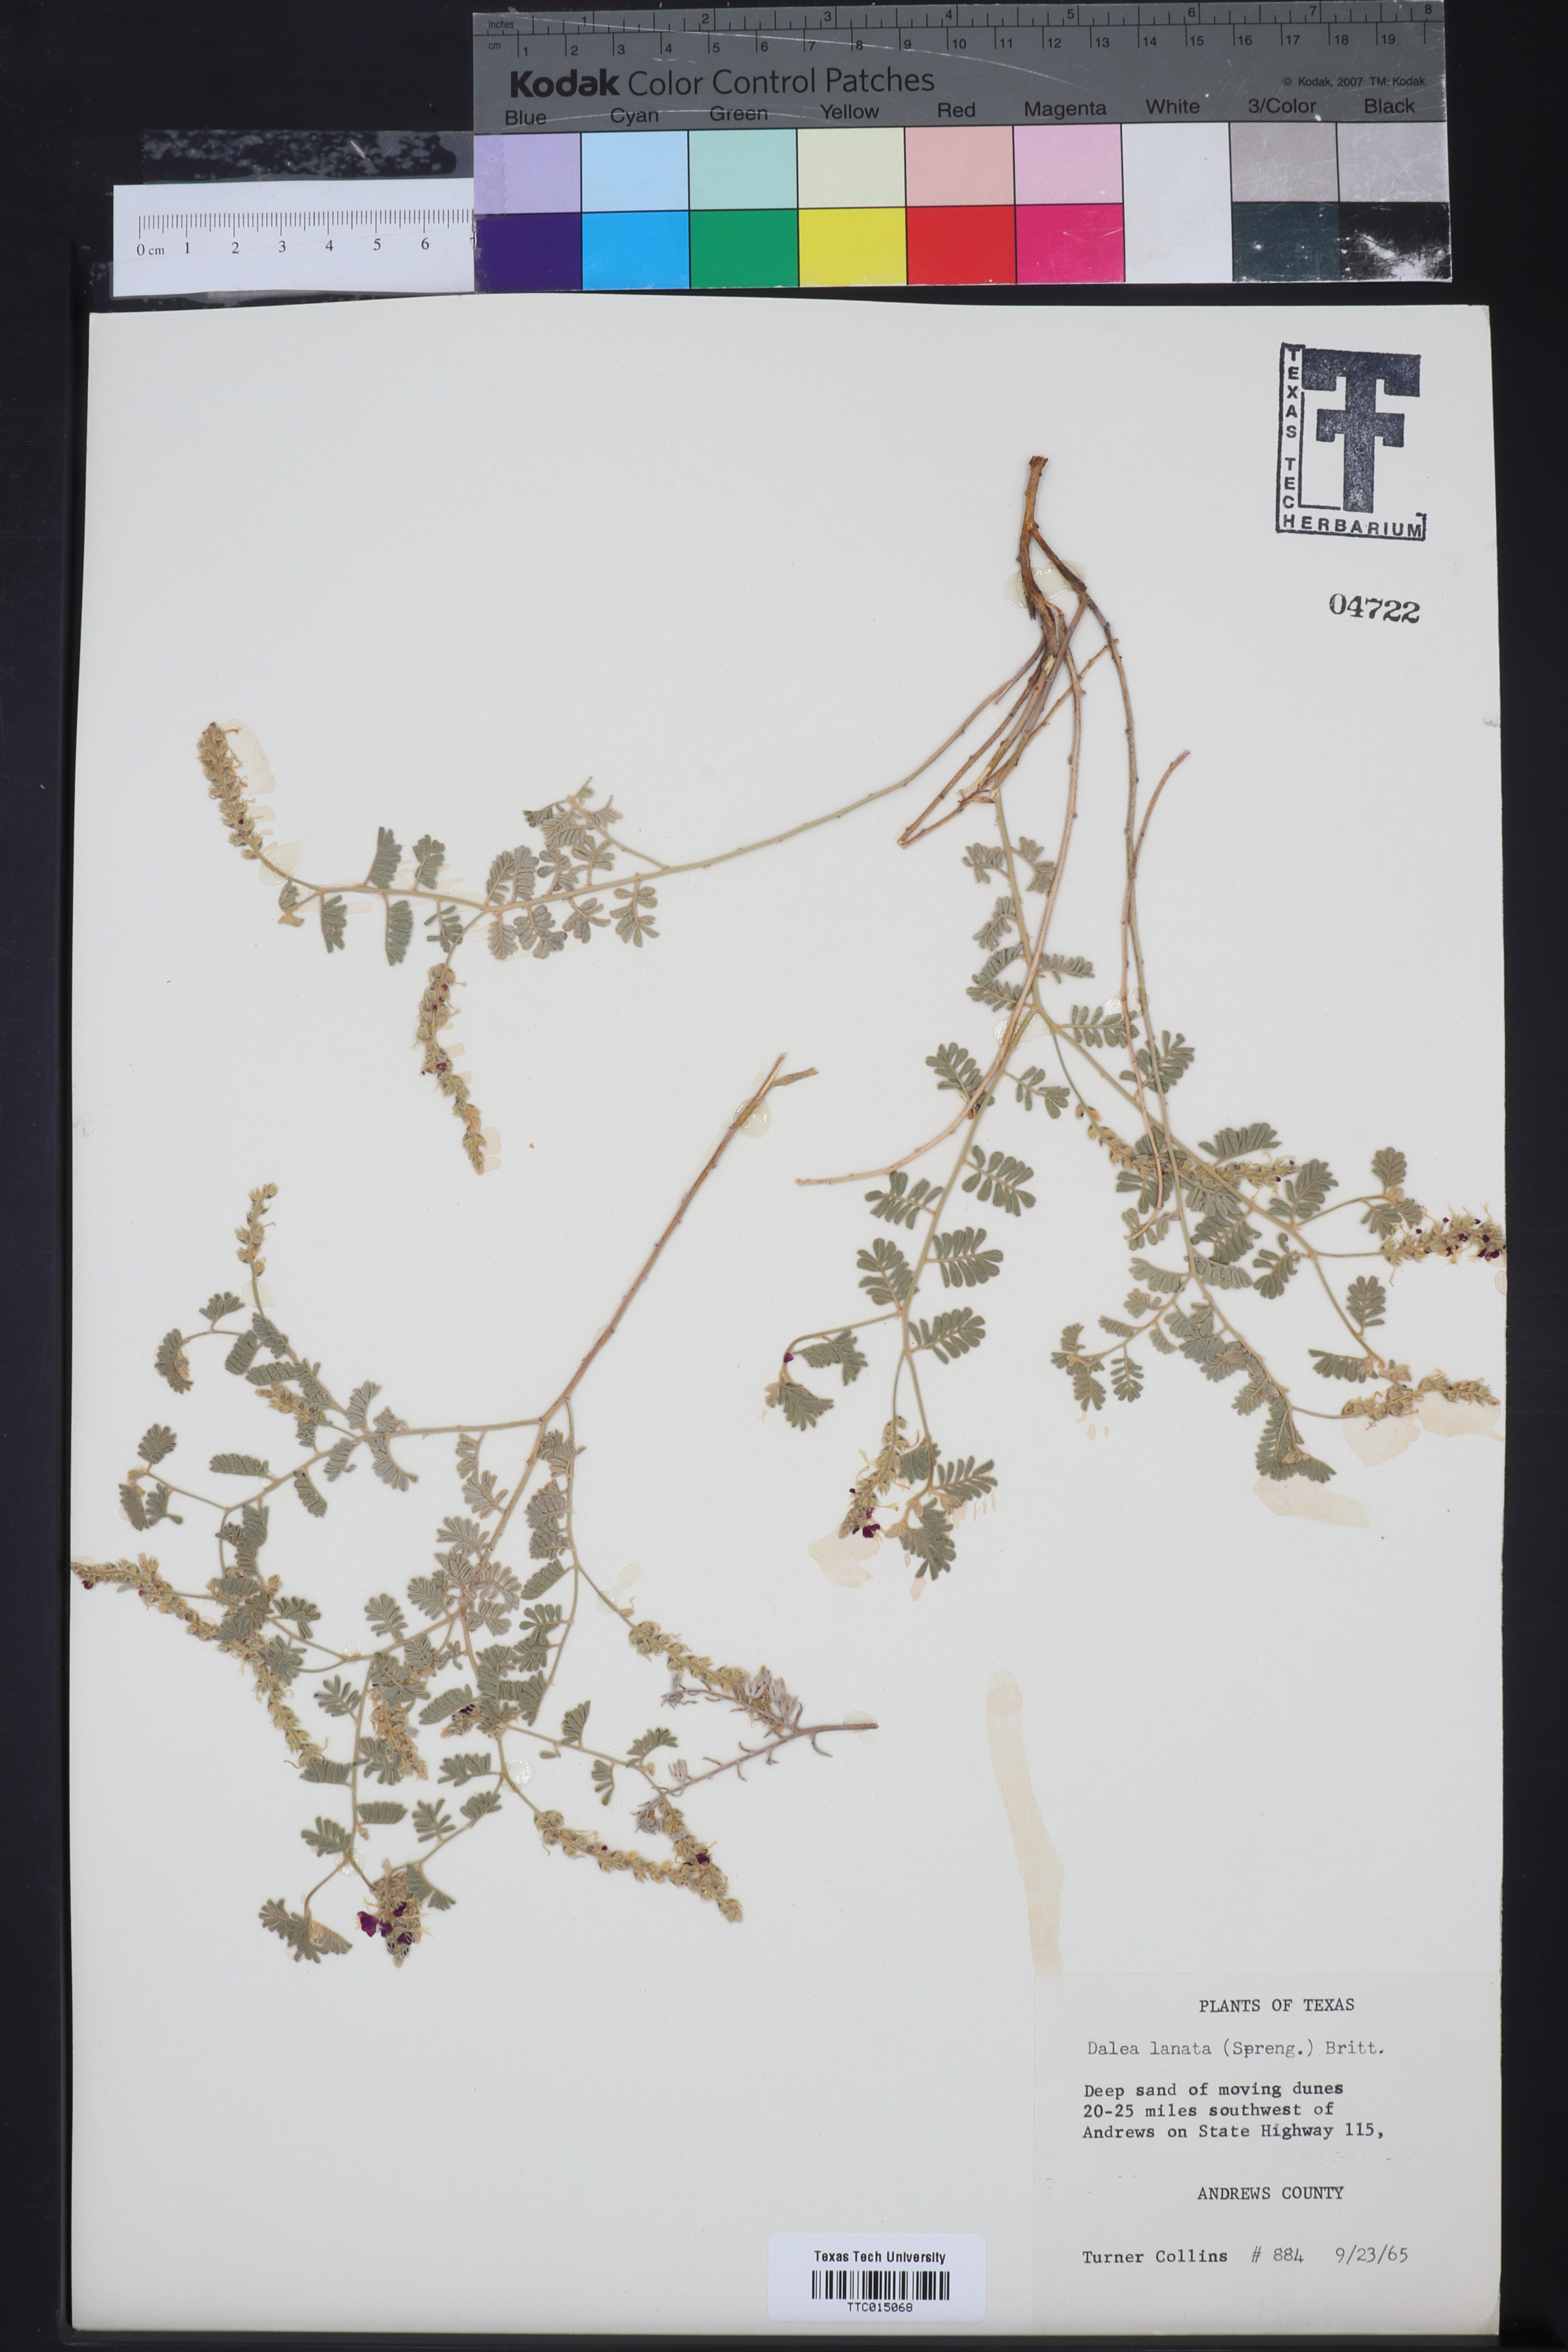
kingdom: Plantae
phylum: Tracheophyta
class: Magnoliopsida
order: Fabales
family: Fabaceae
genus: Dalea
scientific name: Dalea lanata
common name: Woolly dalea
